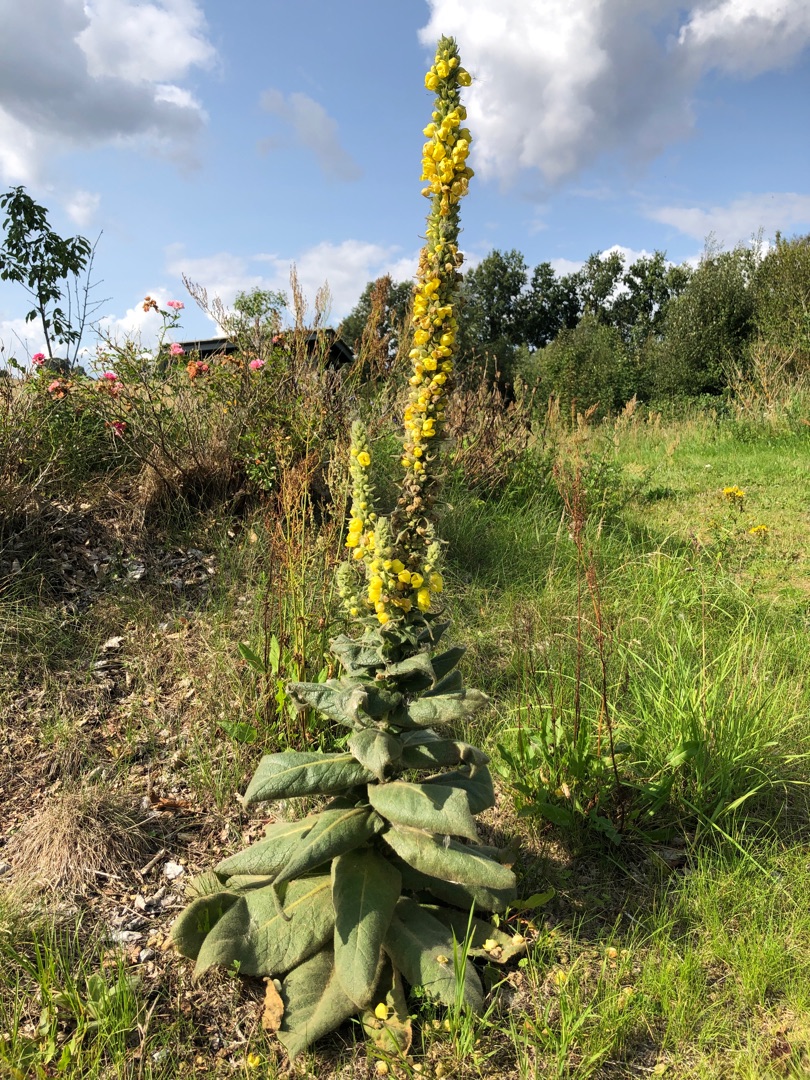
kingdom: Plantae
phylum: Tracheophyta
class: Magnoliopsida
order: Lamiales
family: Scrophulariaceae
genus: Verbascum
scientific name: Verbascum
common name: Kongelysslægten
